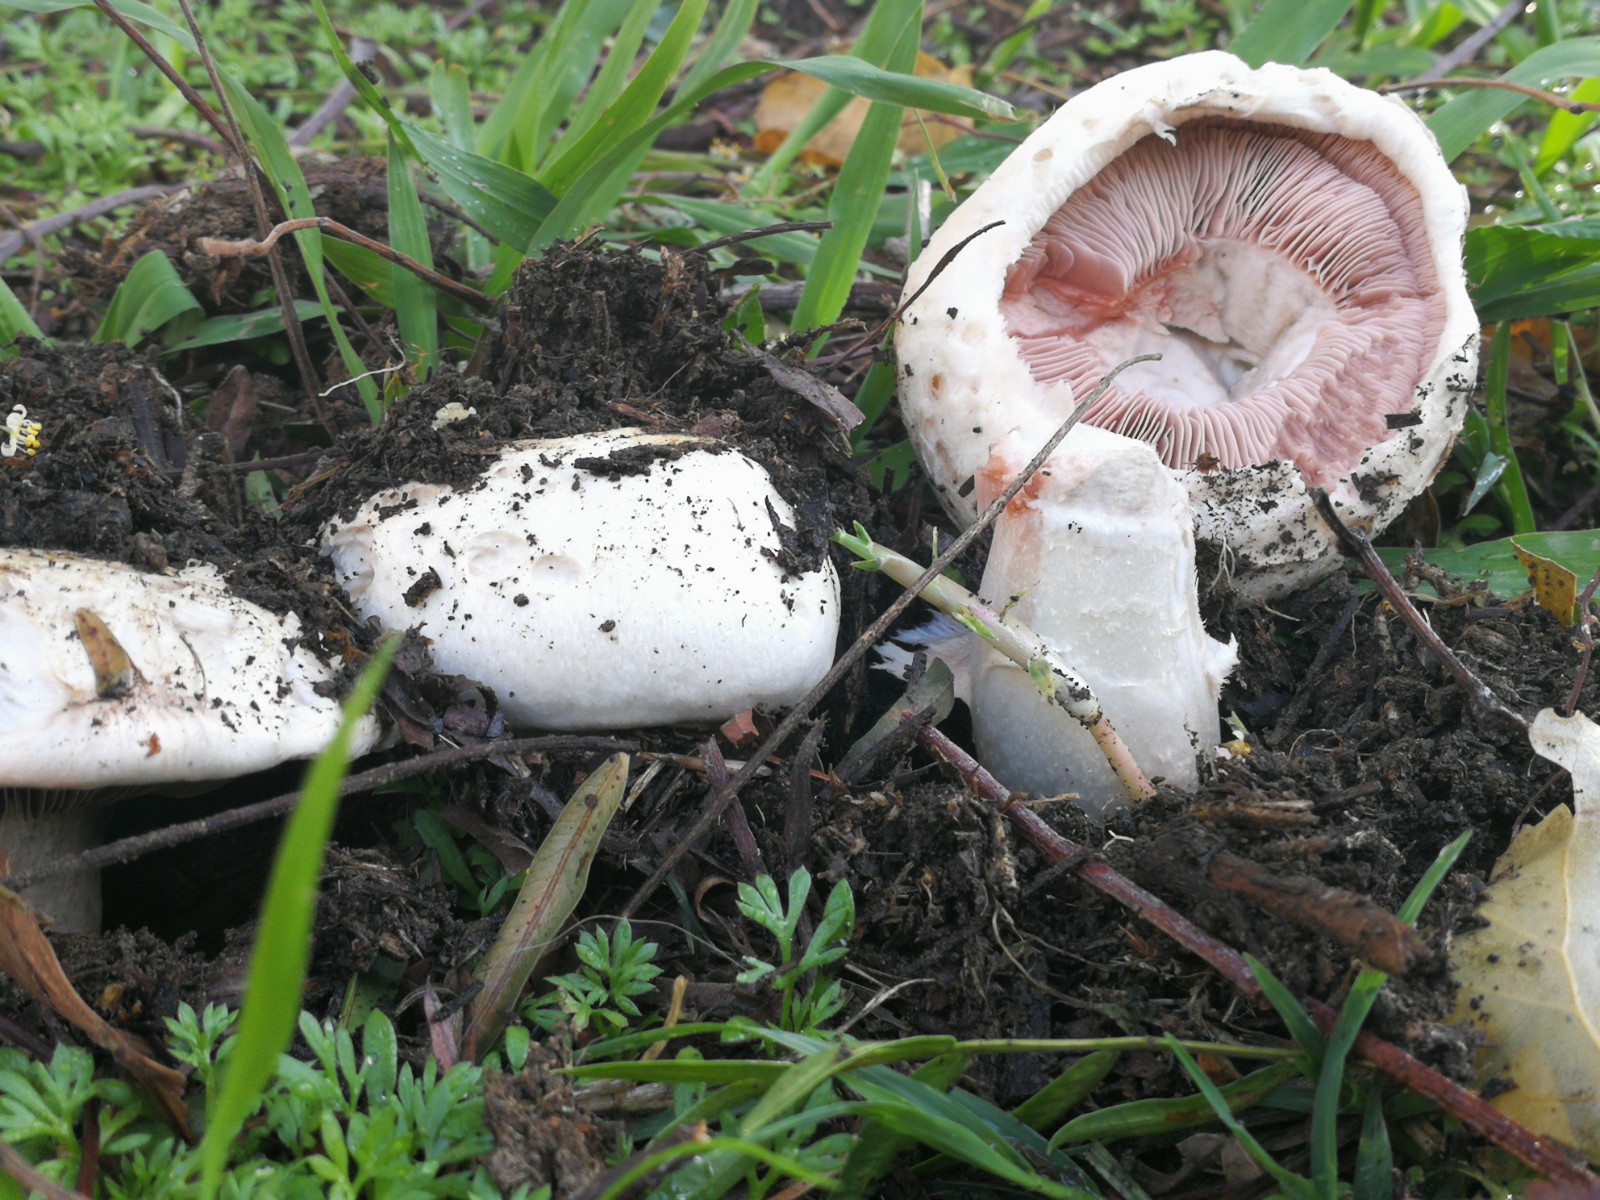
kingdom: Fungi
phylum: Basidiomycota
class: Agaricomycetes
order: Agaricales
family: Agaricaceae
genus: Agaricus
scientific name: Agaricus campestris
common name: mark-champignon
